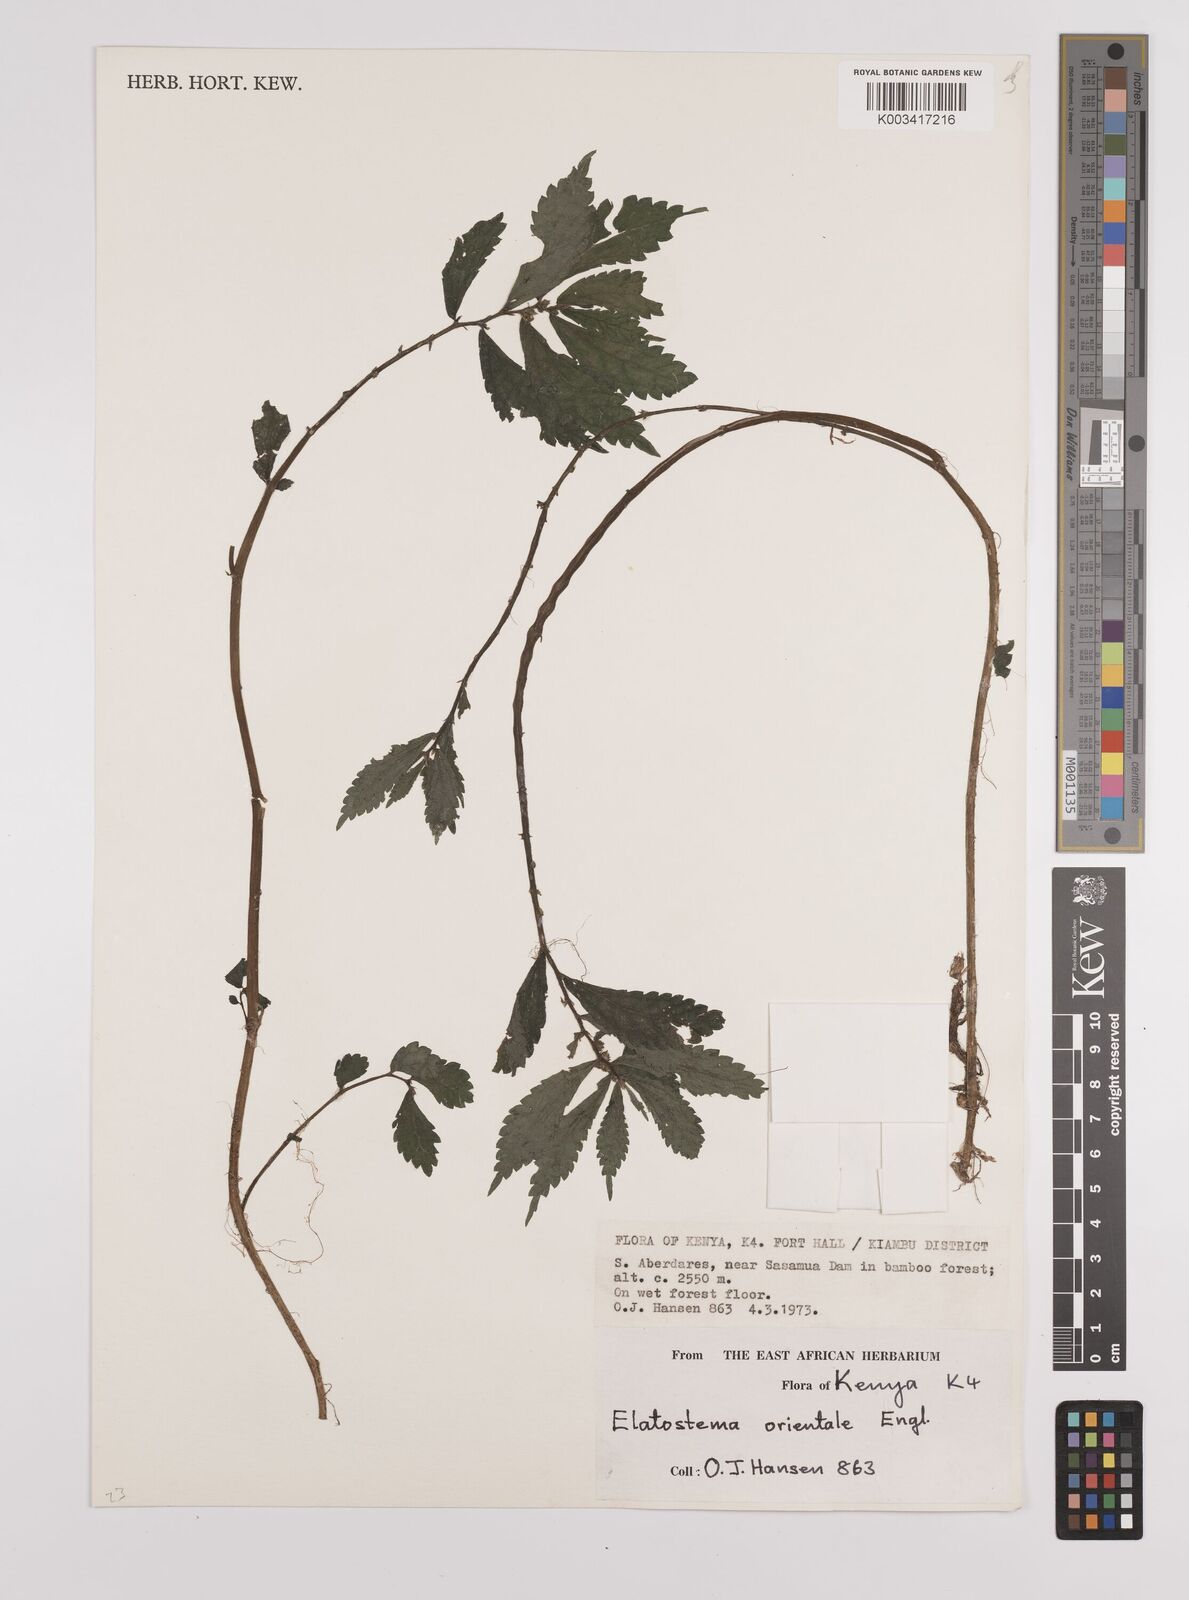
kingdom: Plantae
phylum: Tracheophyta
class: Magnoliopsida
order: Rosales
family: Urticaceae
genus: Elatostema
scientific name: Elatostema monticola
